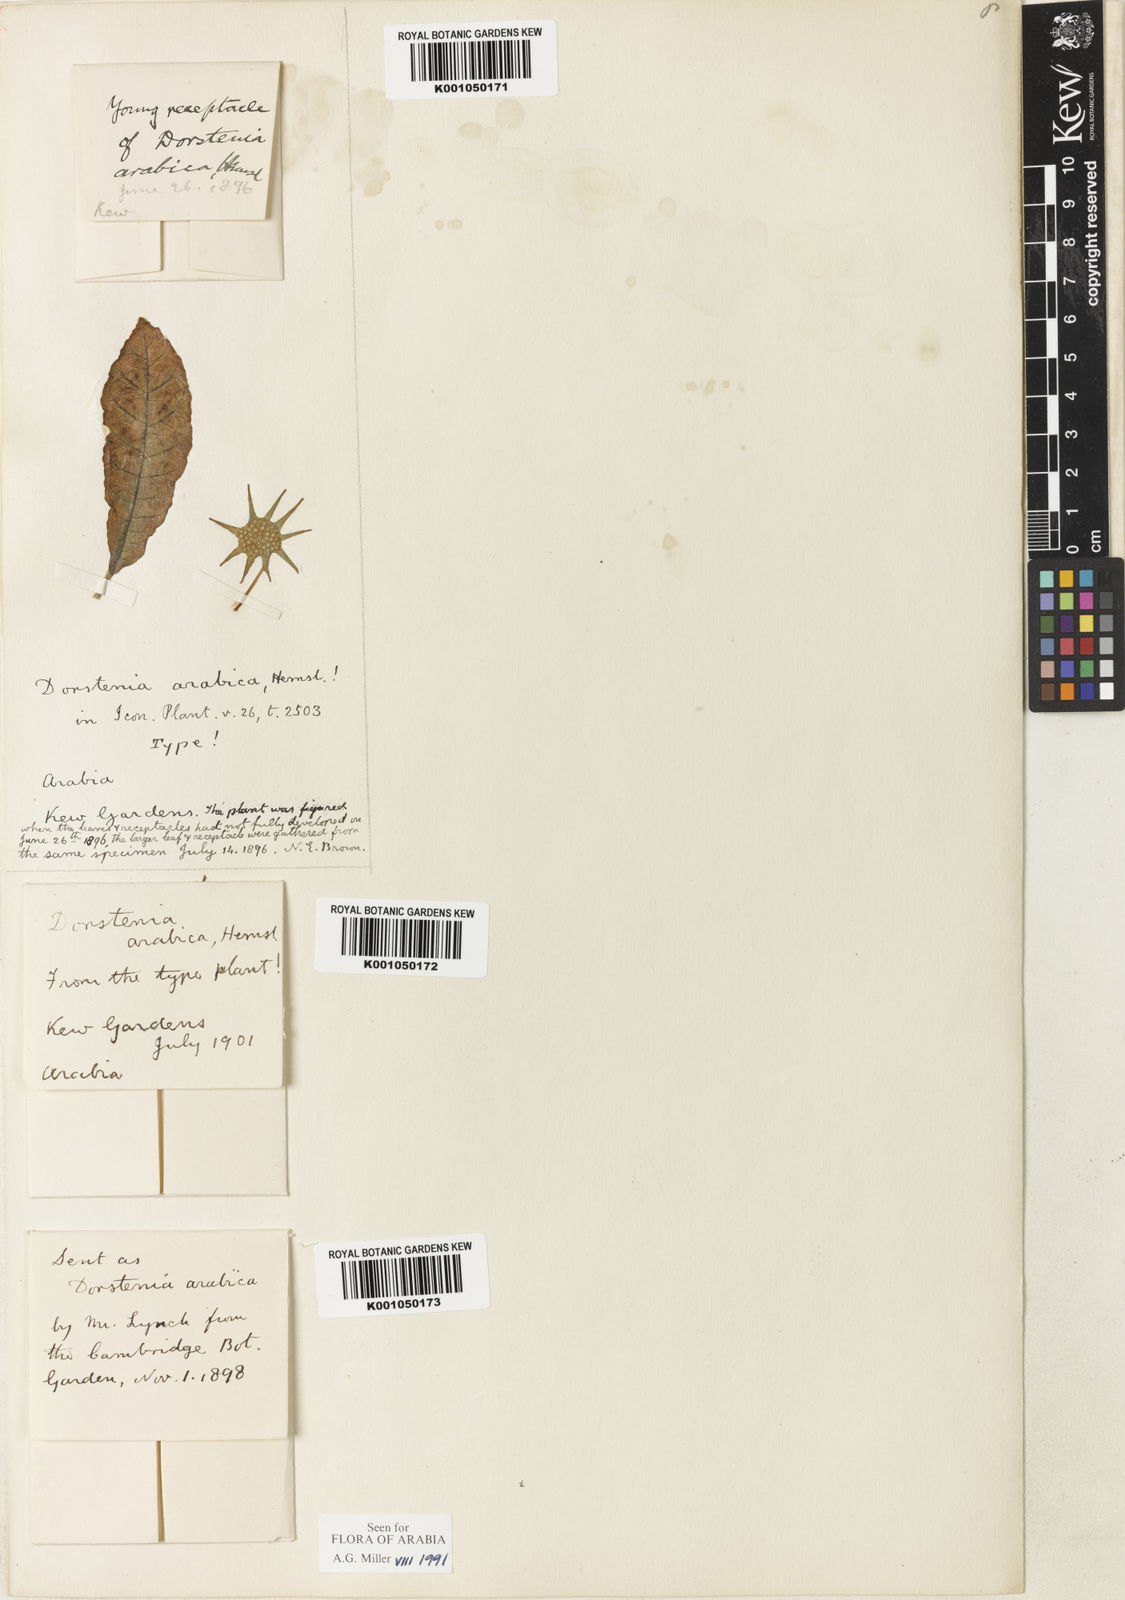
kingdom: Plantae
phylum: Tracheophyta
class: Magnoliopsida
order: Rosales
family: Moraceae
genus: Dorstenia
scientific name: Dorstenia foetida
